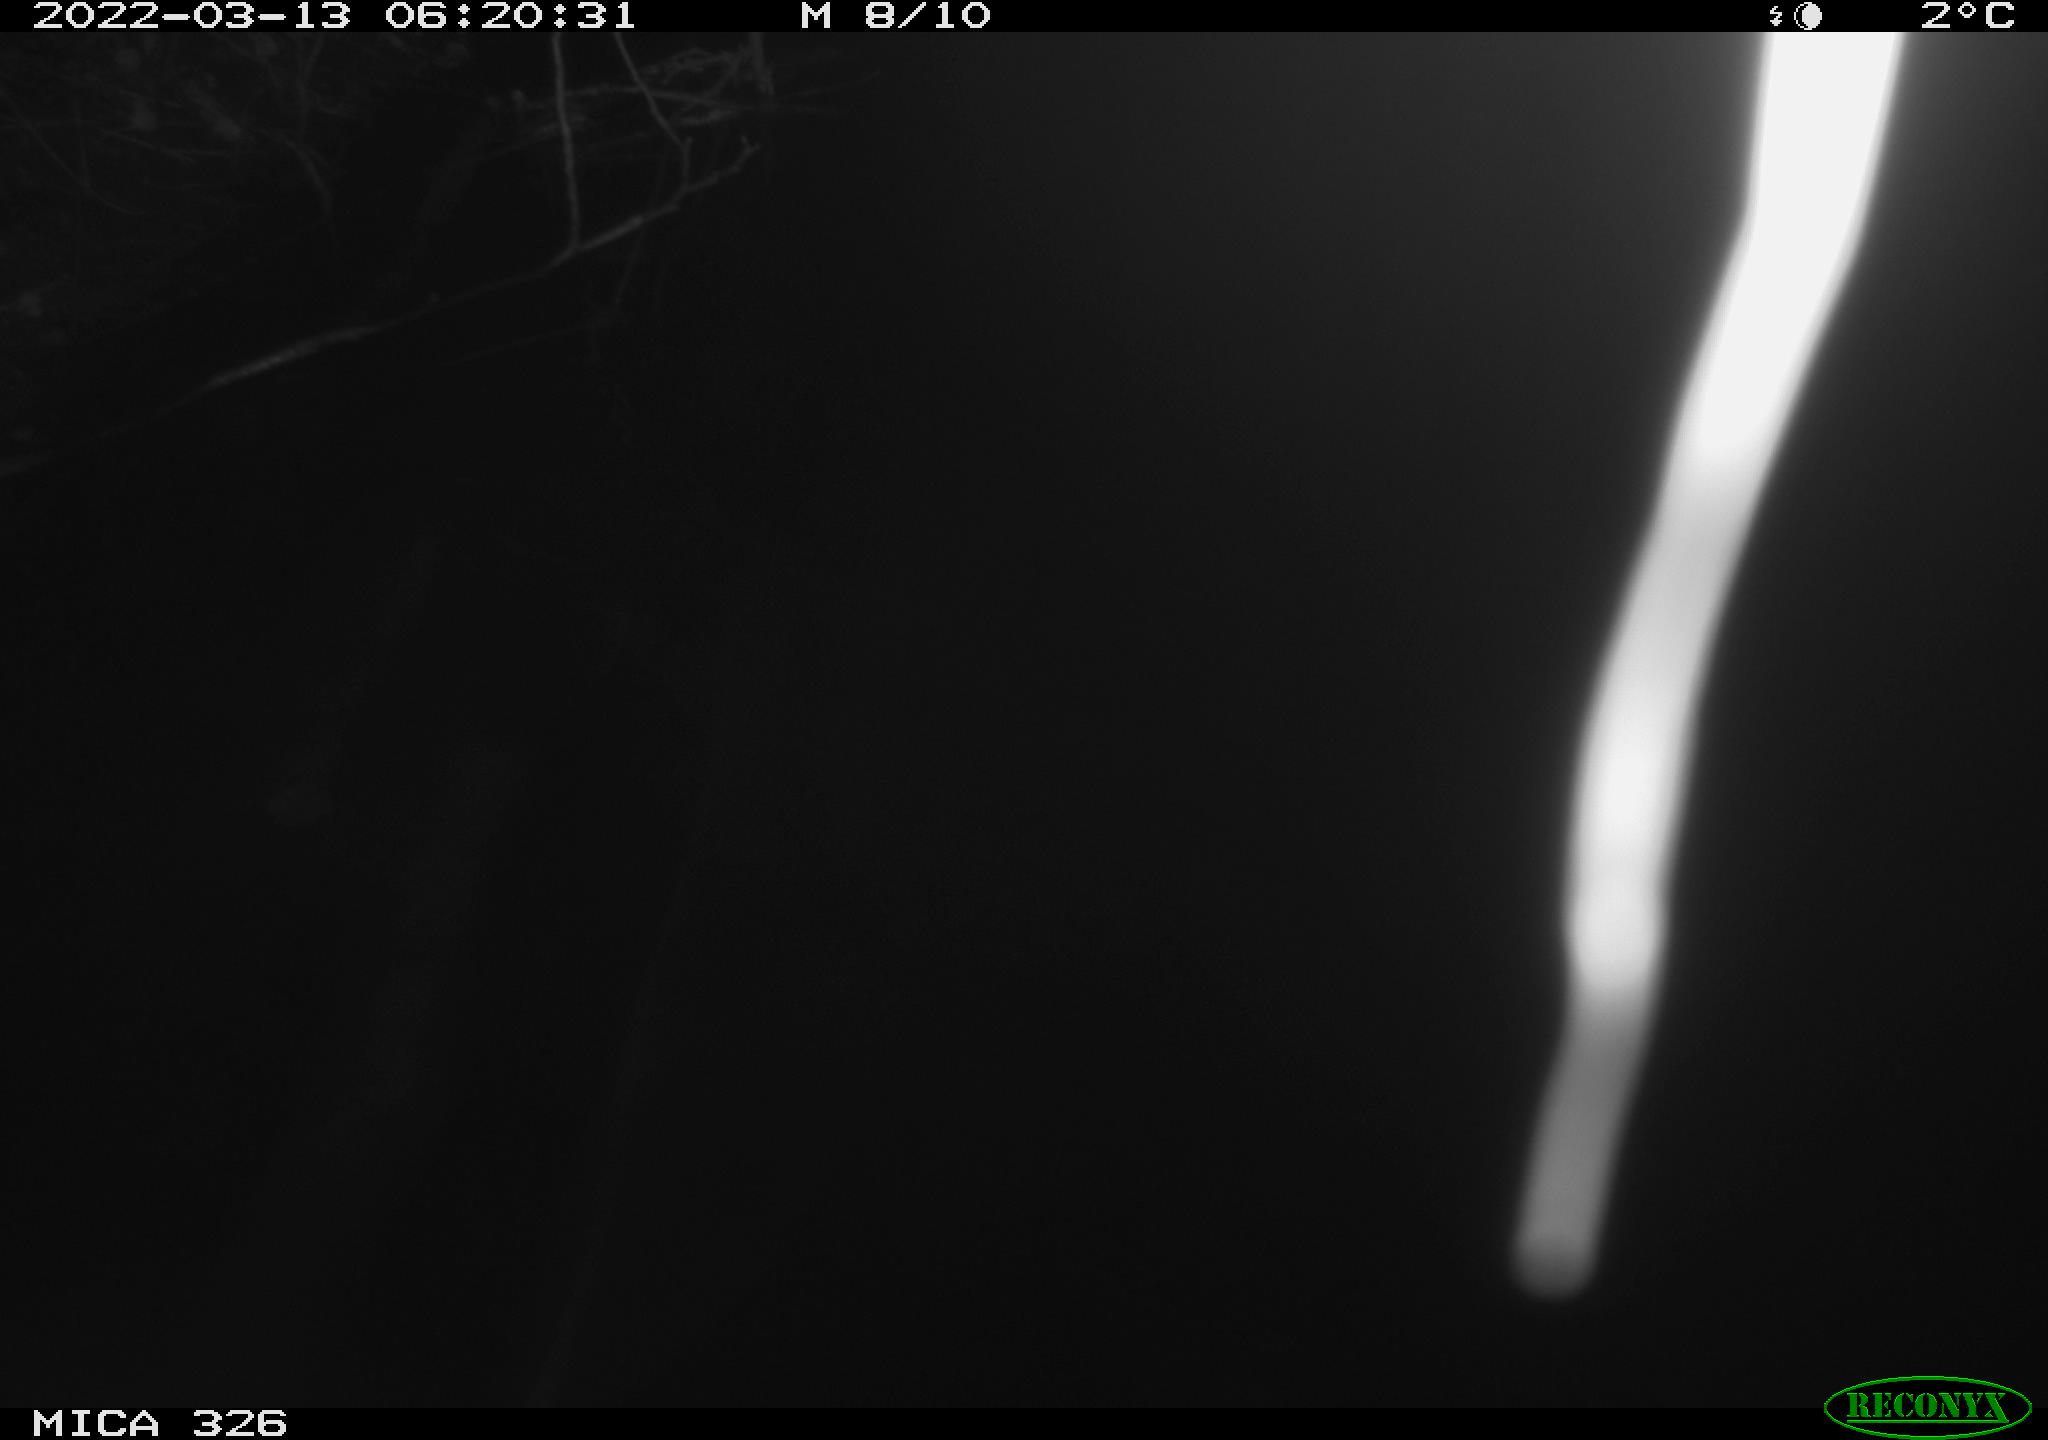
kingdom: Animalia
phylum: Chordata
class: Aves
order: Gruiformes
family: Rallidae
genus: Gallinula
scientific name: Gallinula chloropus
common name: Common moorhen
